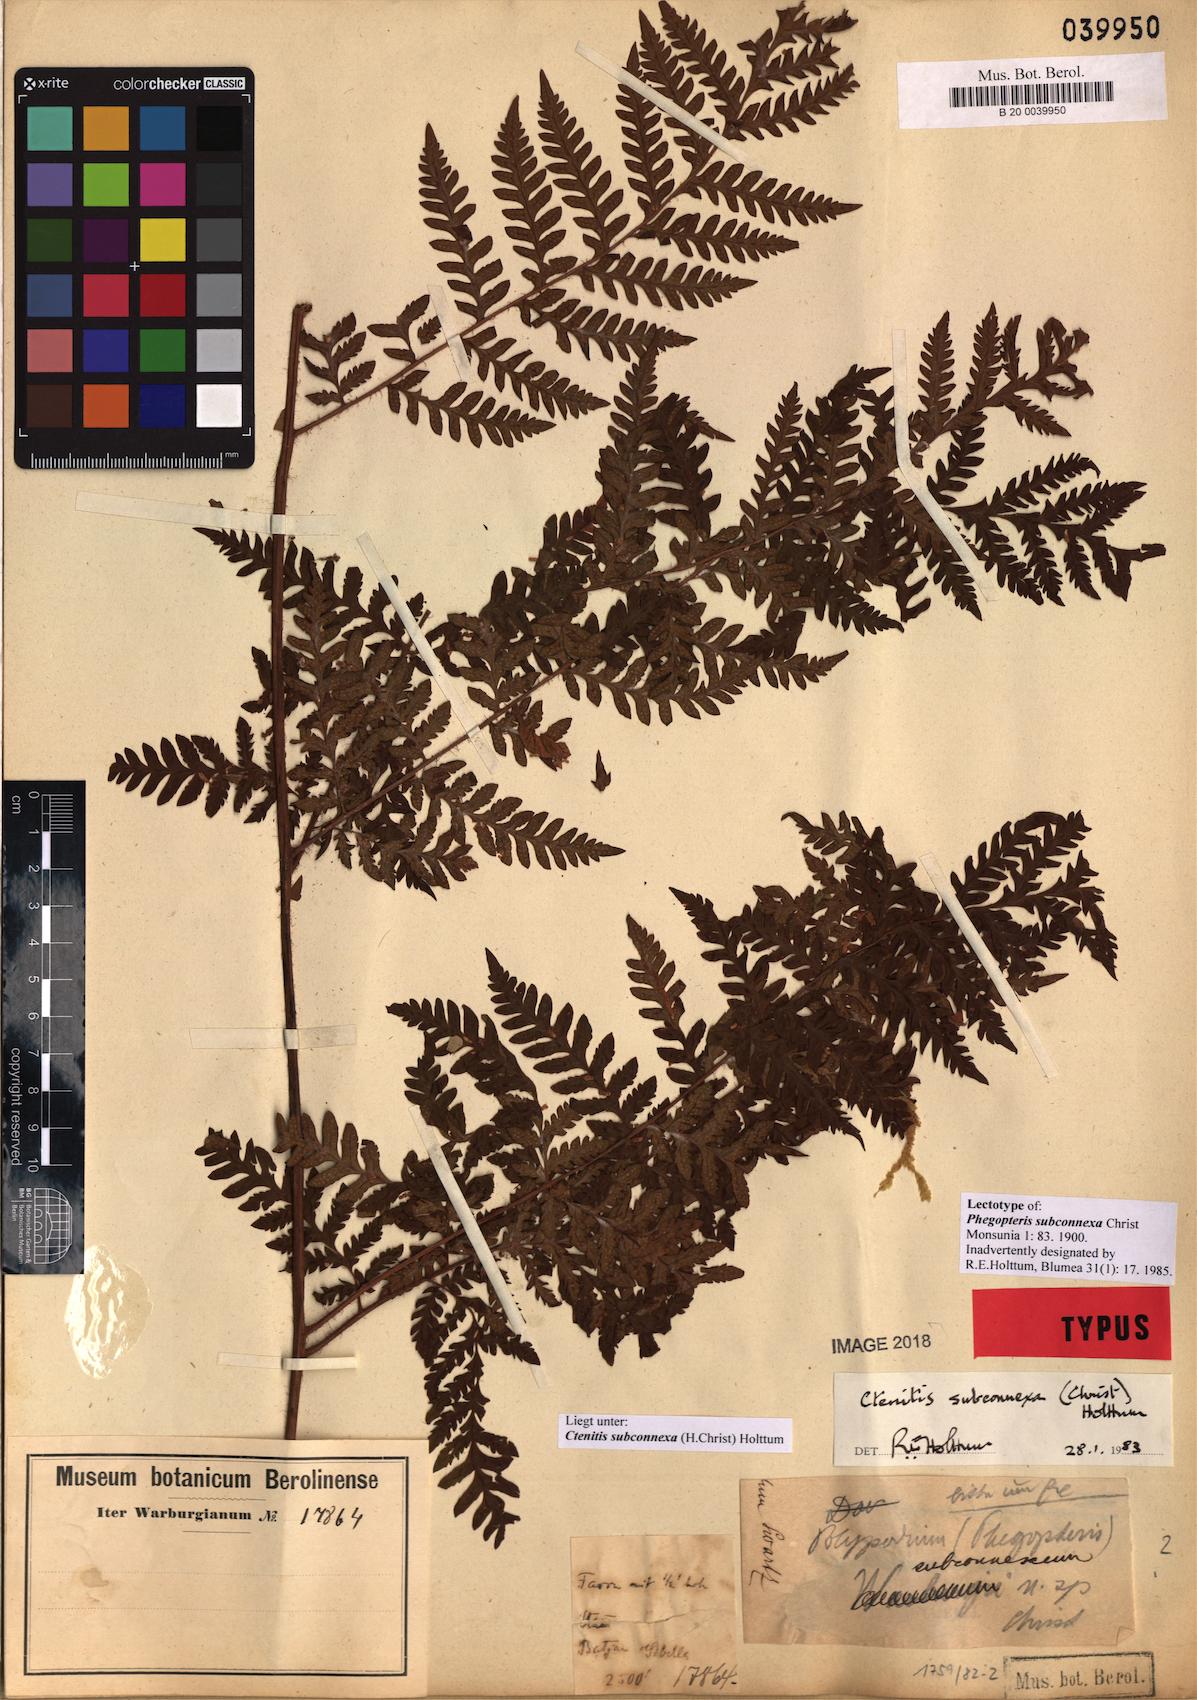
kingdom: Plantae
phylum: Tracheophyta
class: Polypodiopsida
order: Polypodiales
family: Dryopteridaceae
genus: Ctenitis
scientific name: Ctenitis subconnexa
